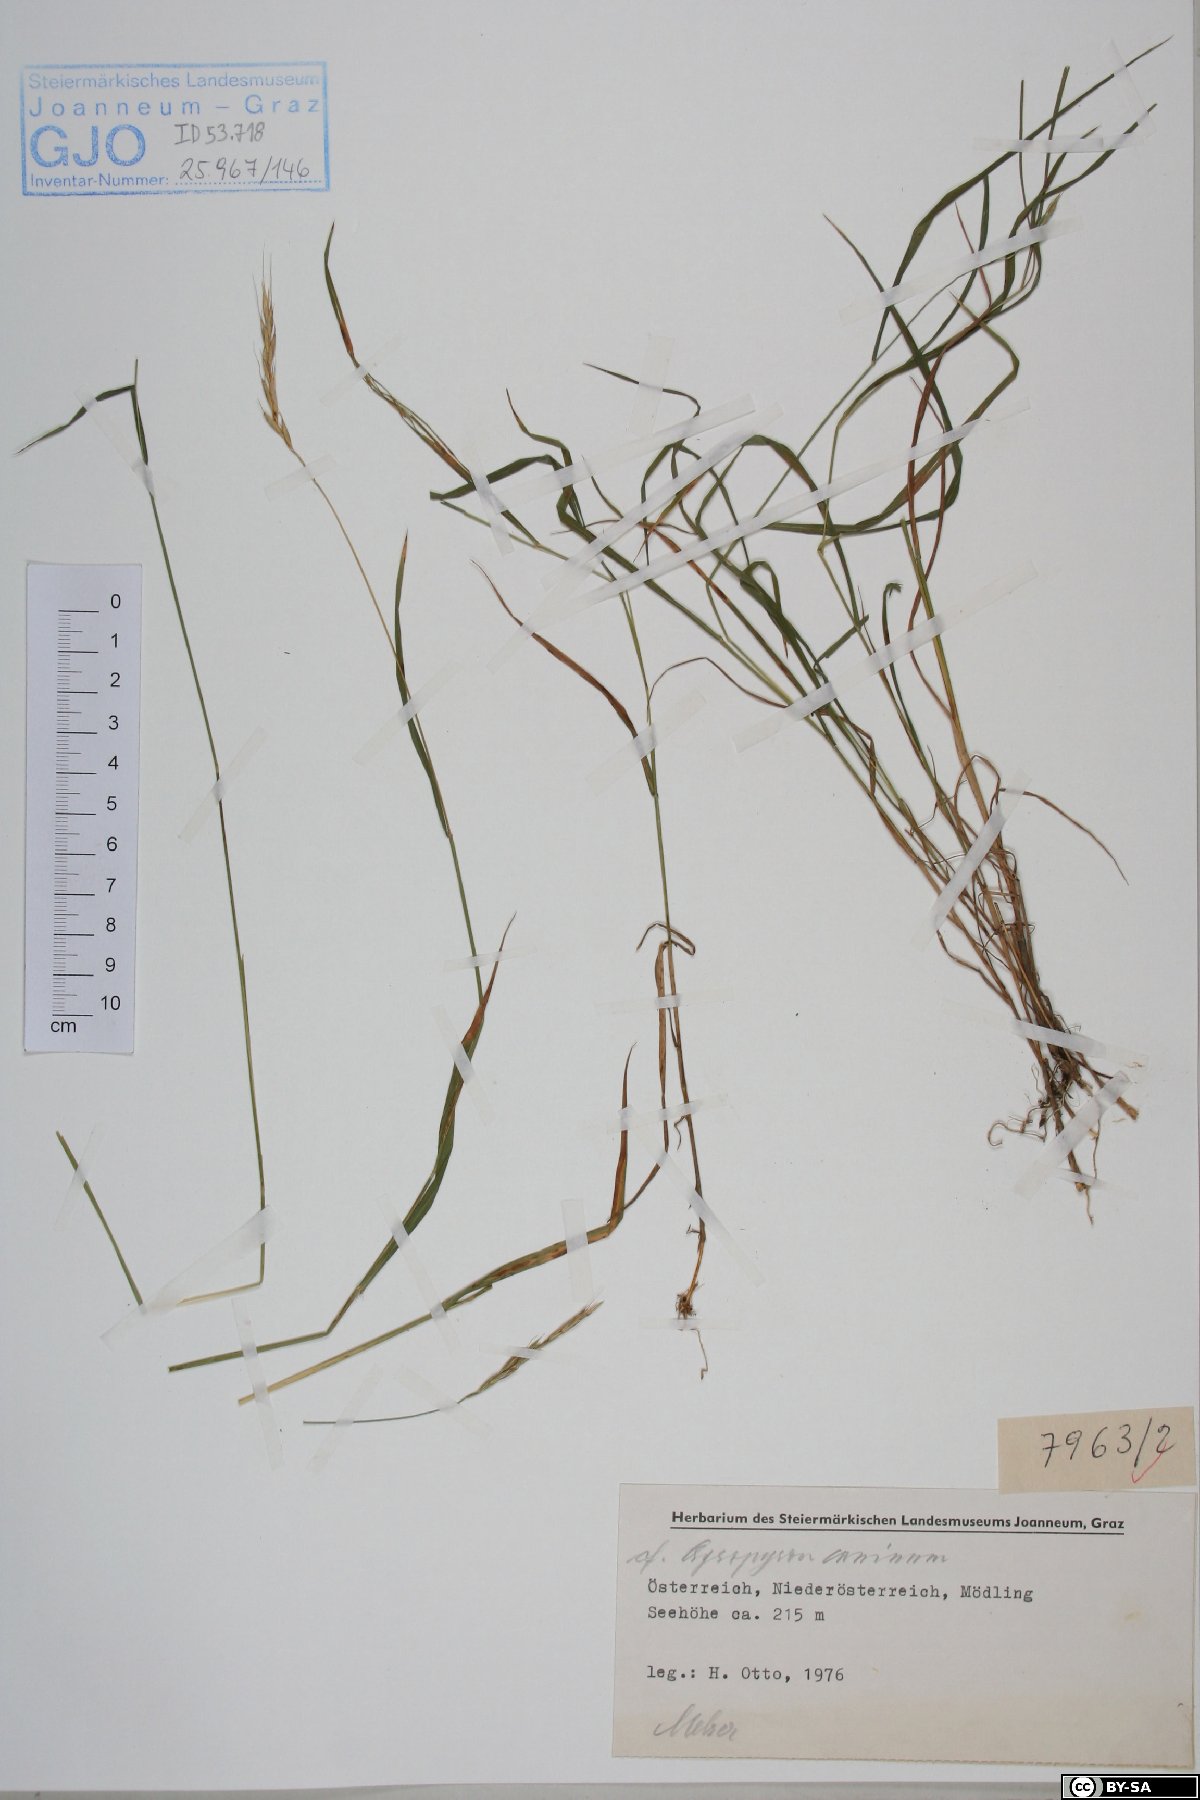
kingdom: Plantae
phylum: Tracheophyta
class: Liliopsida
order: Poales
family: Poaceae
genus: Elymus
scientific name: Elymus caninus
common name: Bearded couch
